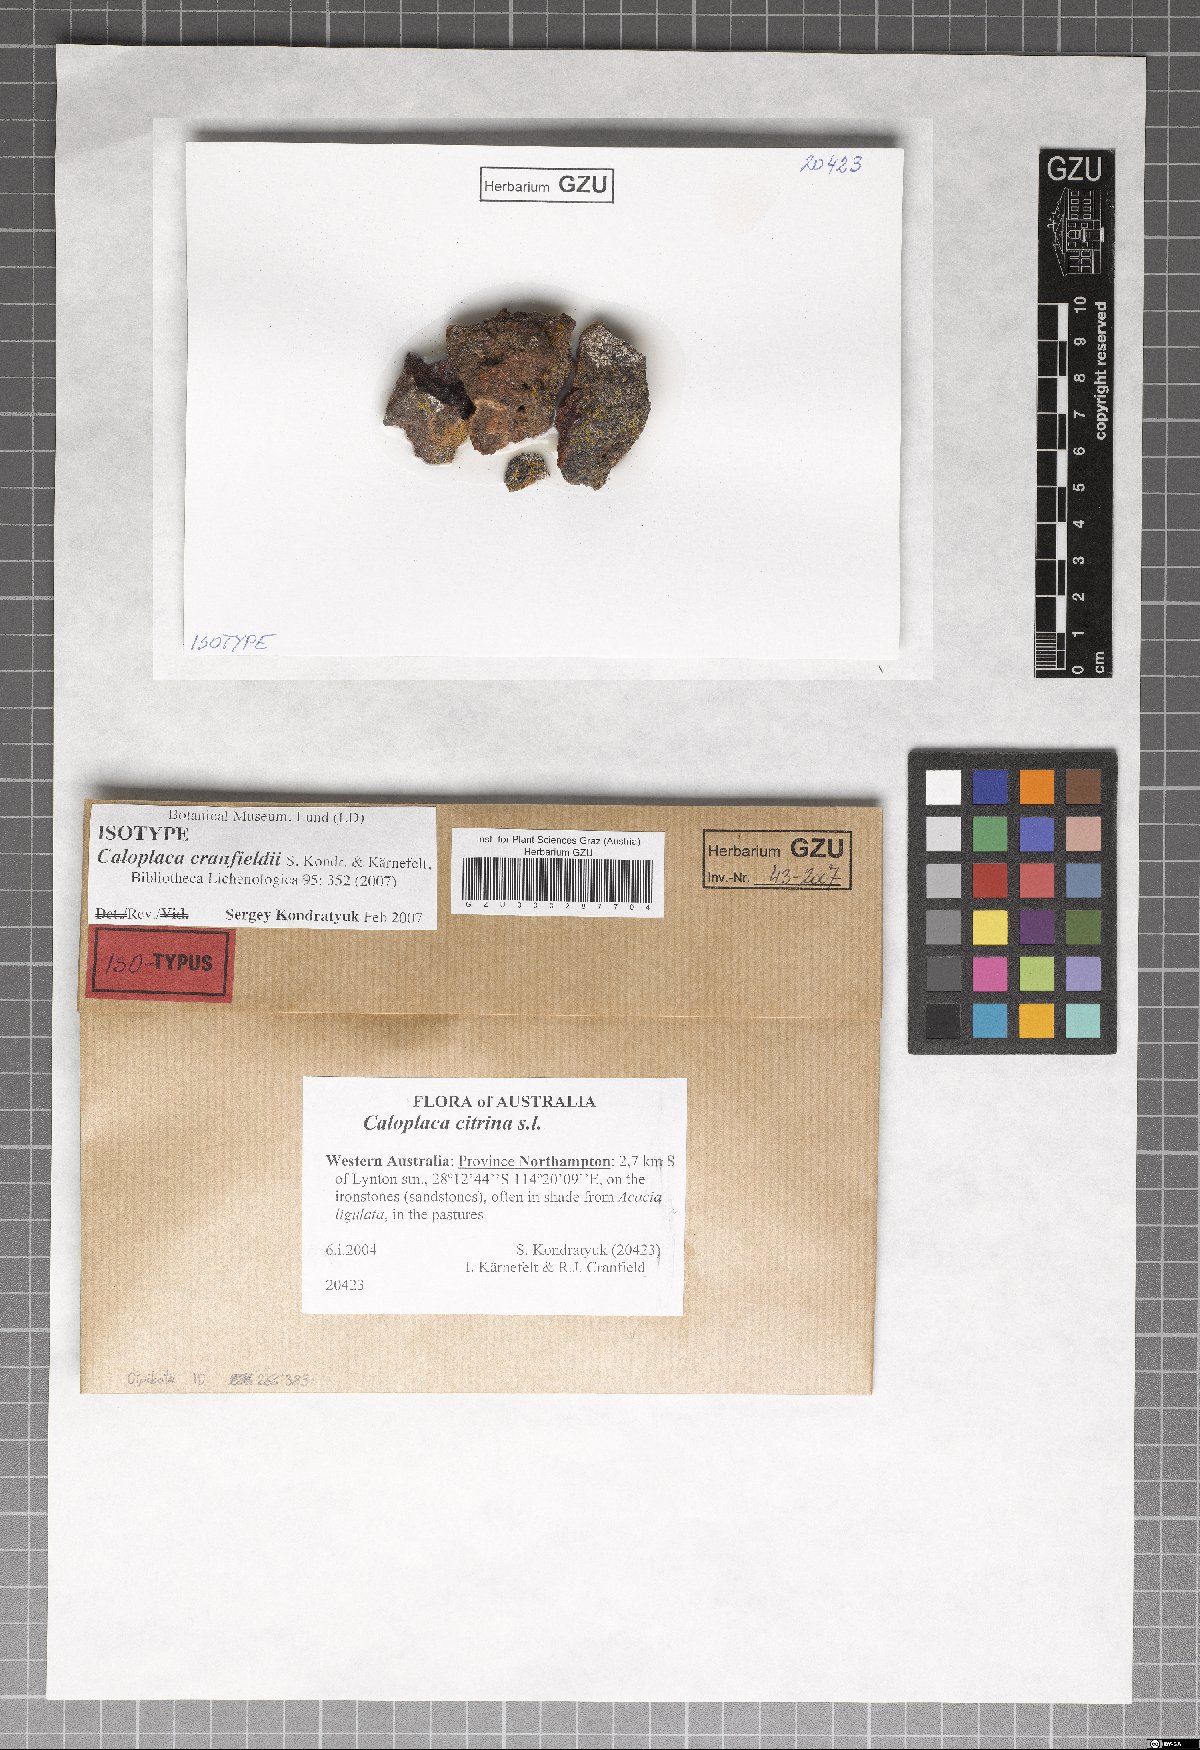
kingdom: Fungi
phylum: Ascomycota
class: Lecanoromycetes
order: Teloschistales
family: Teloschistaceae
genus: Flavoplaca
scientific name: Flavoplaca cranfieldii
